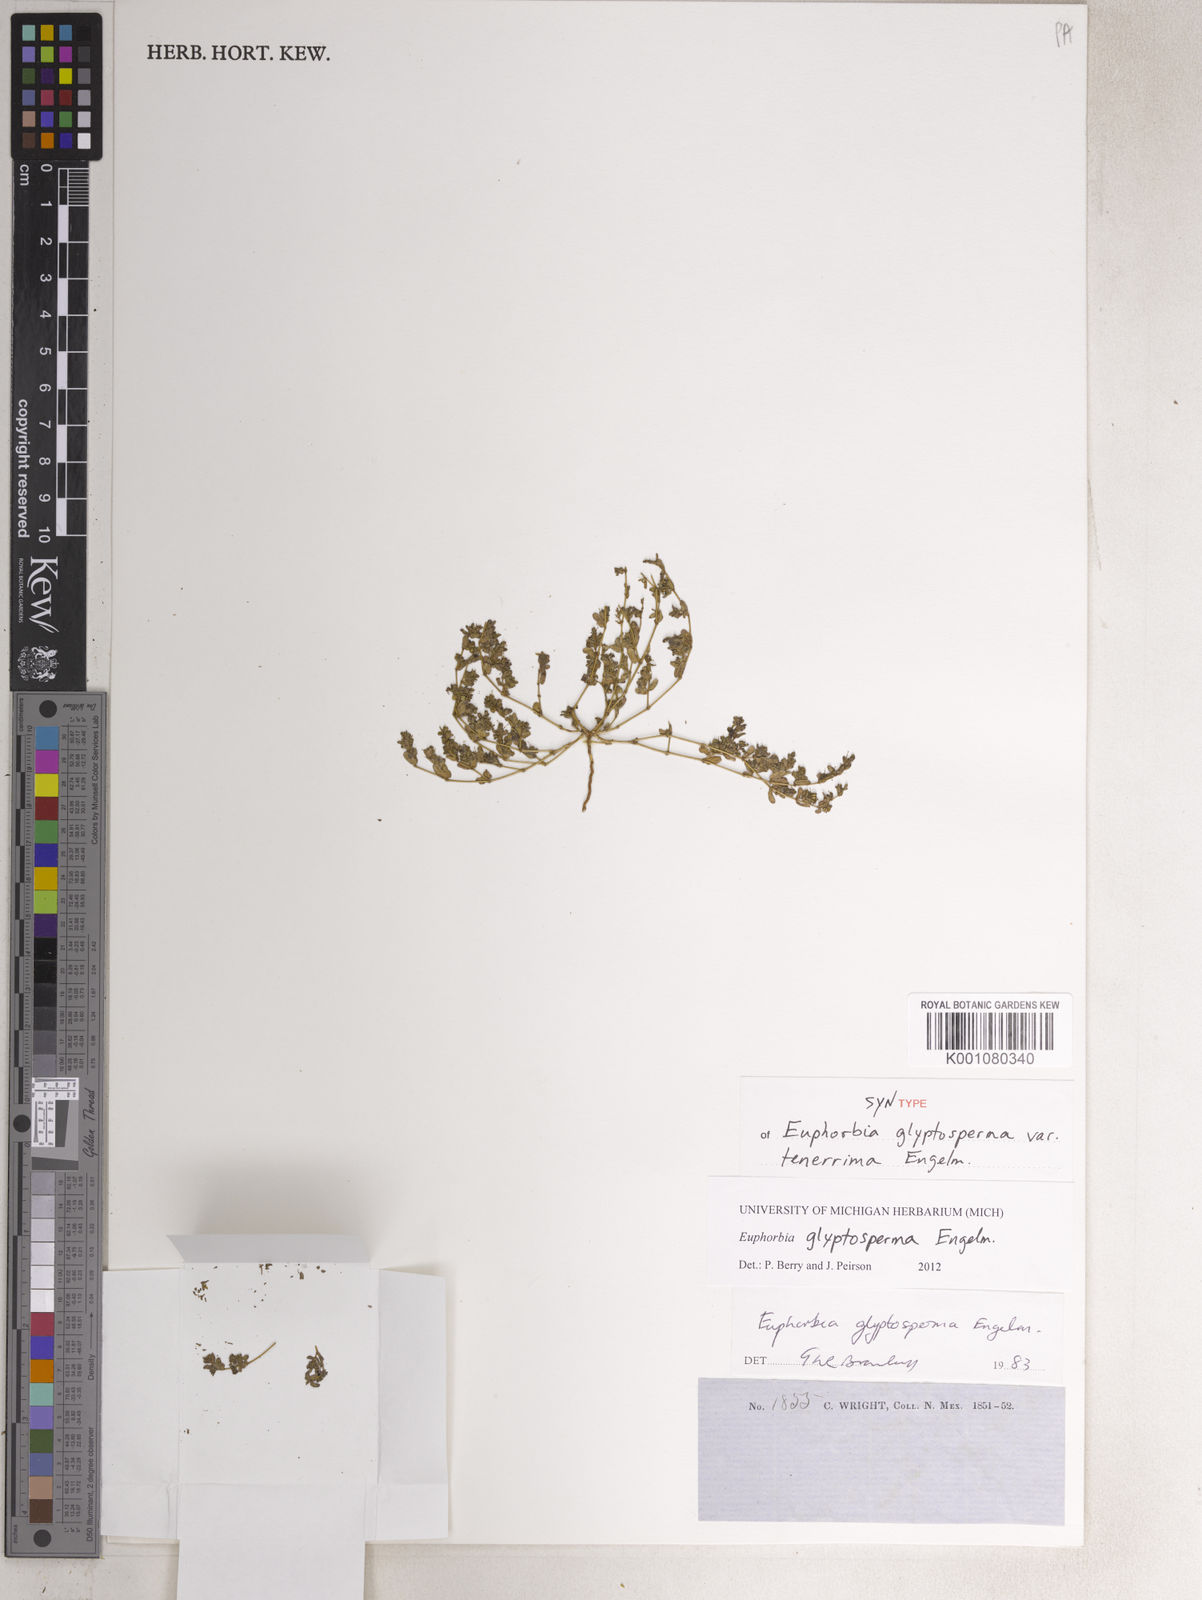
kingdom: Plantae
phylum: Tracheophyta
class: Magnoliopsida
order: Malpighiales
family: Euphorbiaceae
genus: Euphorbia
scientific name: Euphorbia glyptosperma
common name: Corrugate-seeded spurge
